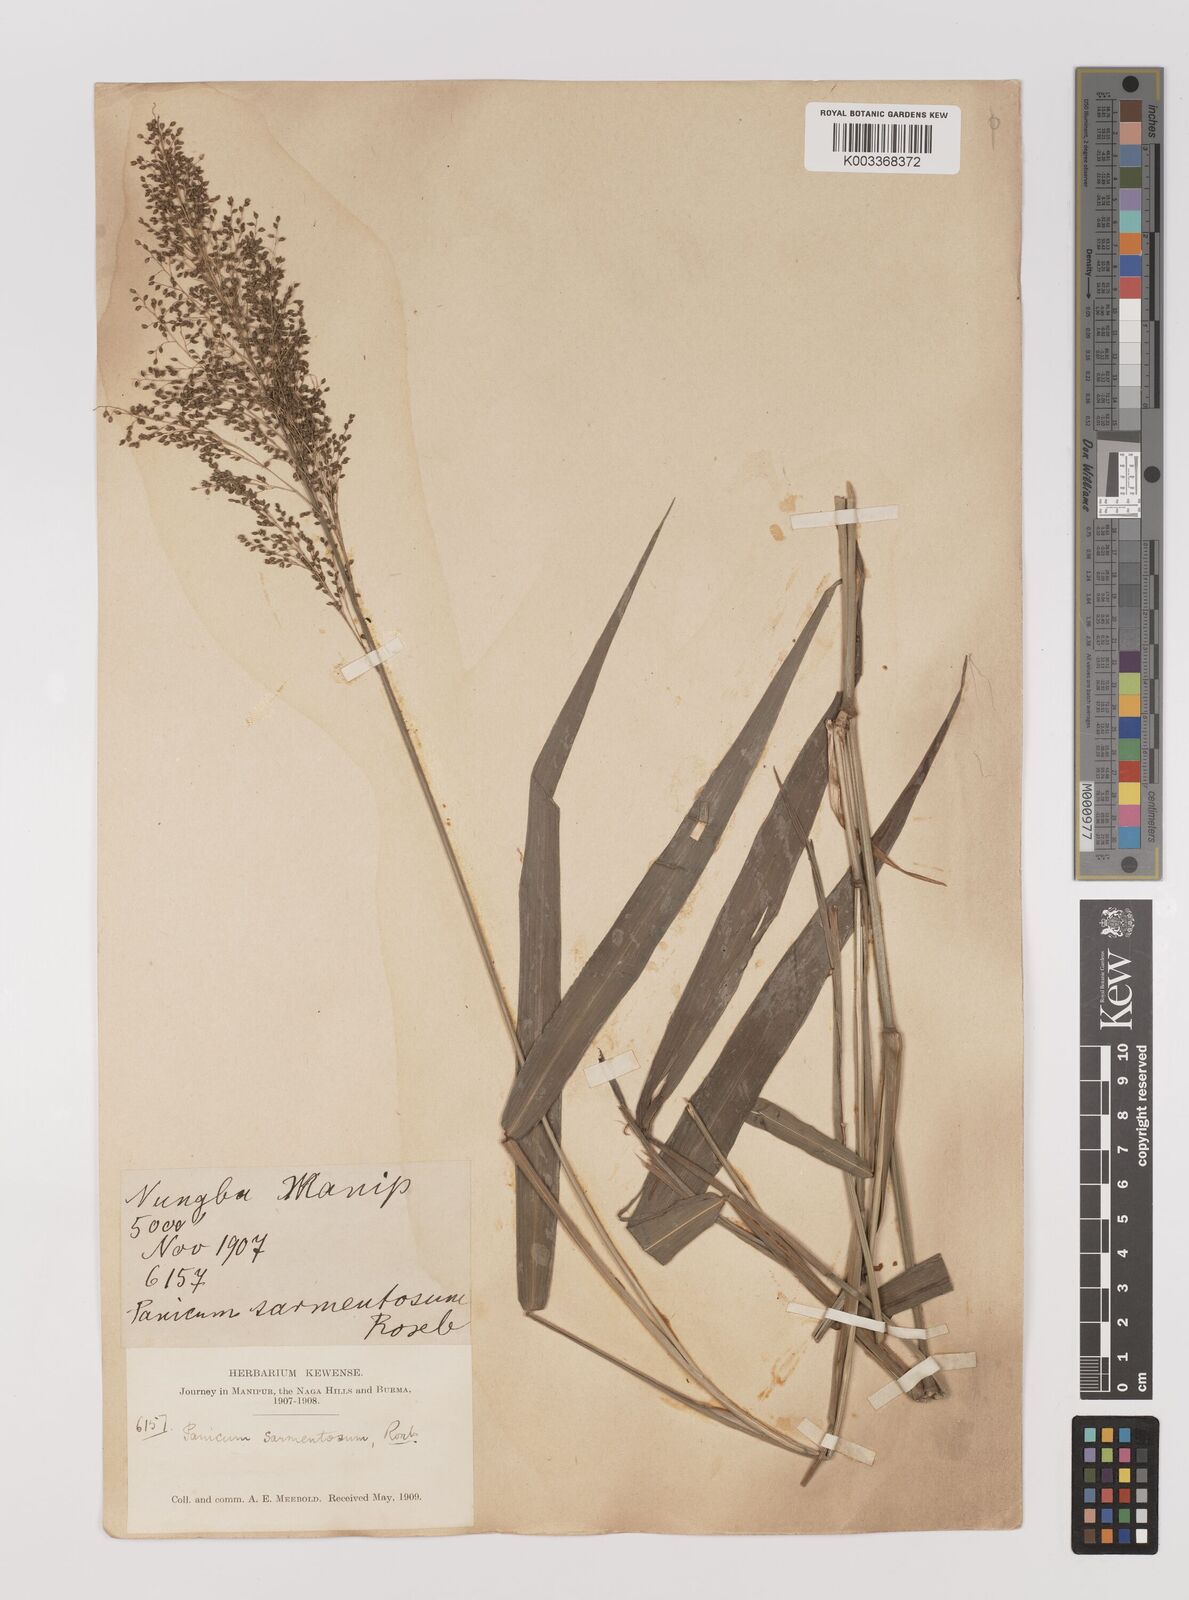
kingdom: Plantae
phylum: Tracheophyta
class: Liliopsida
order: Poales
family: Poaceae
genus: Panicum
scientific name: Panicum sarmentosum
